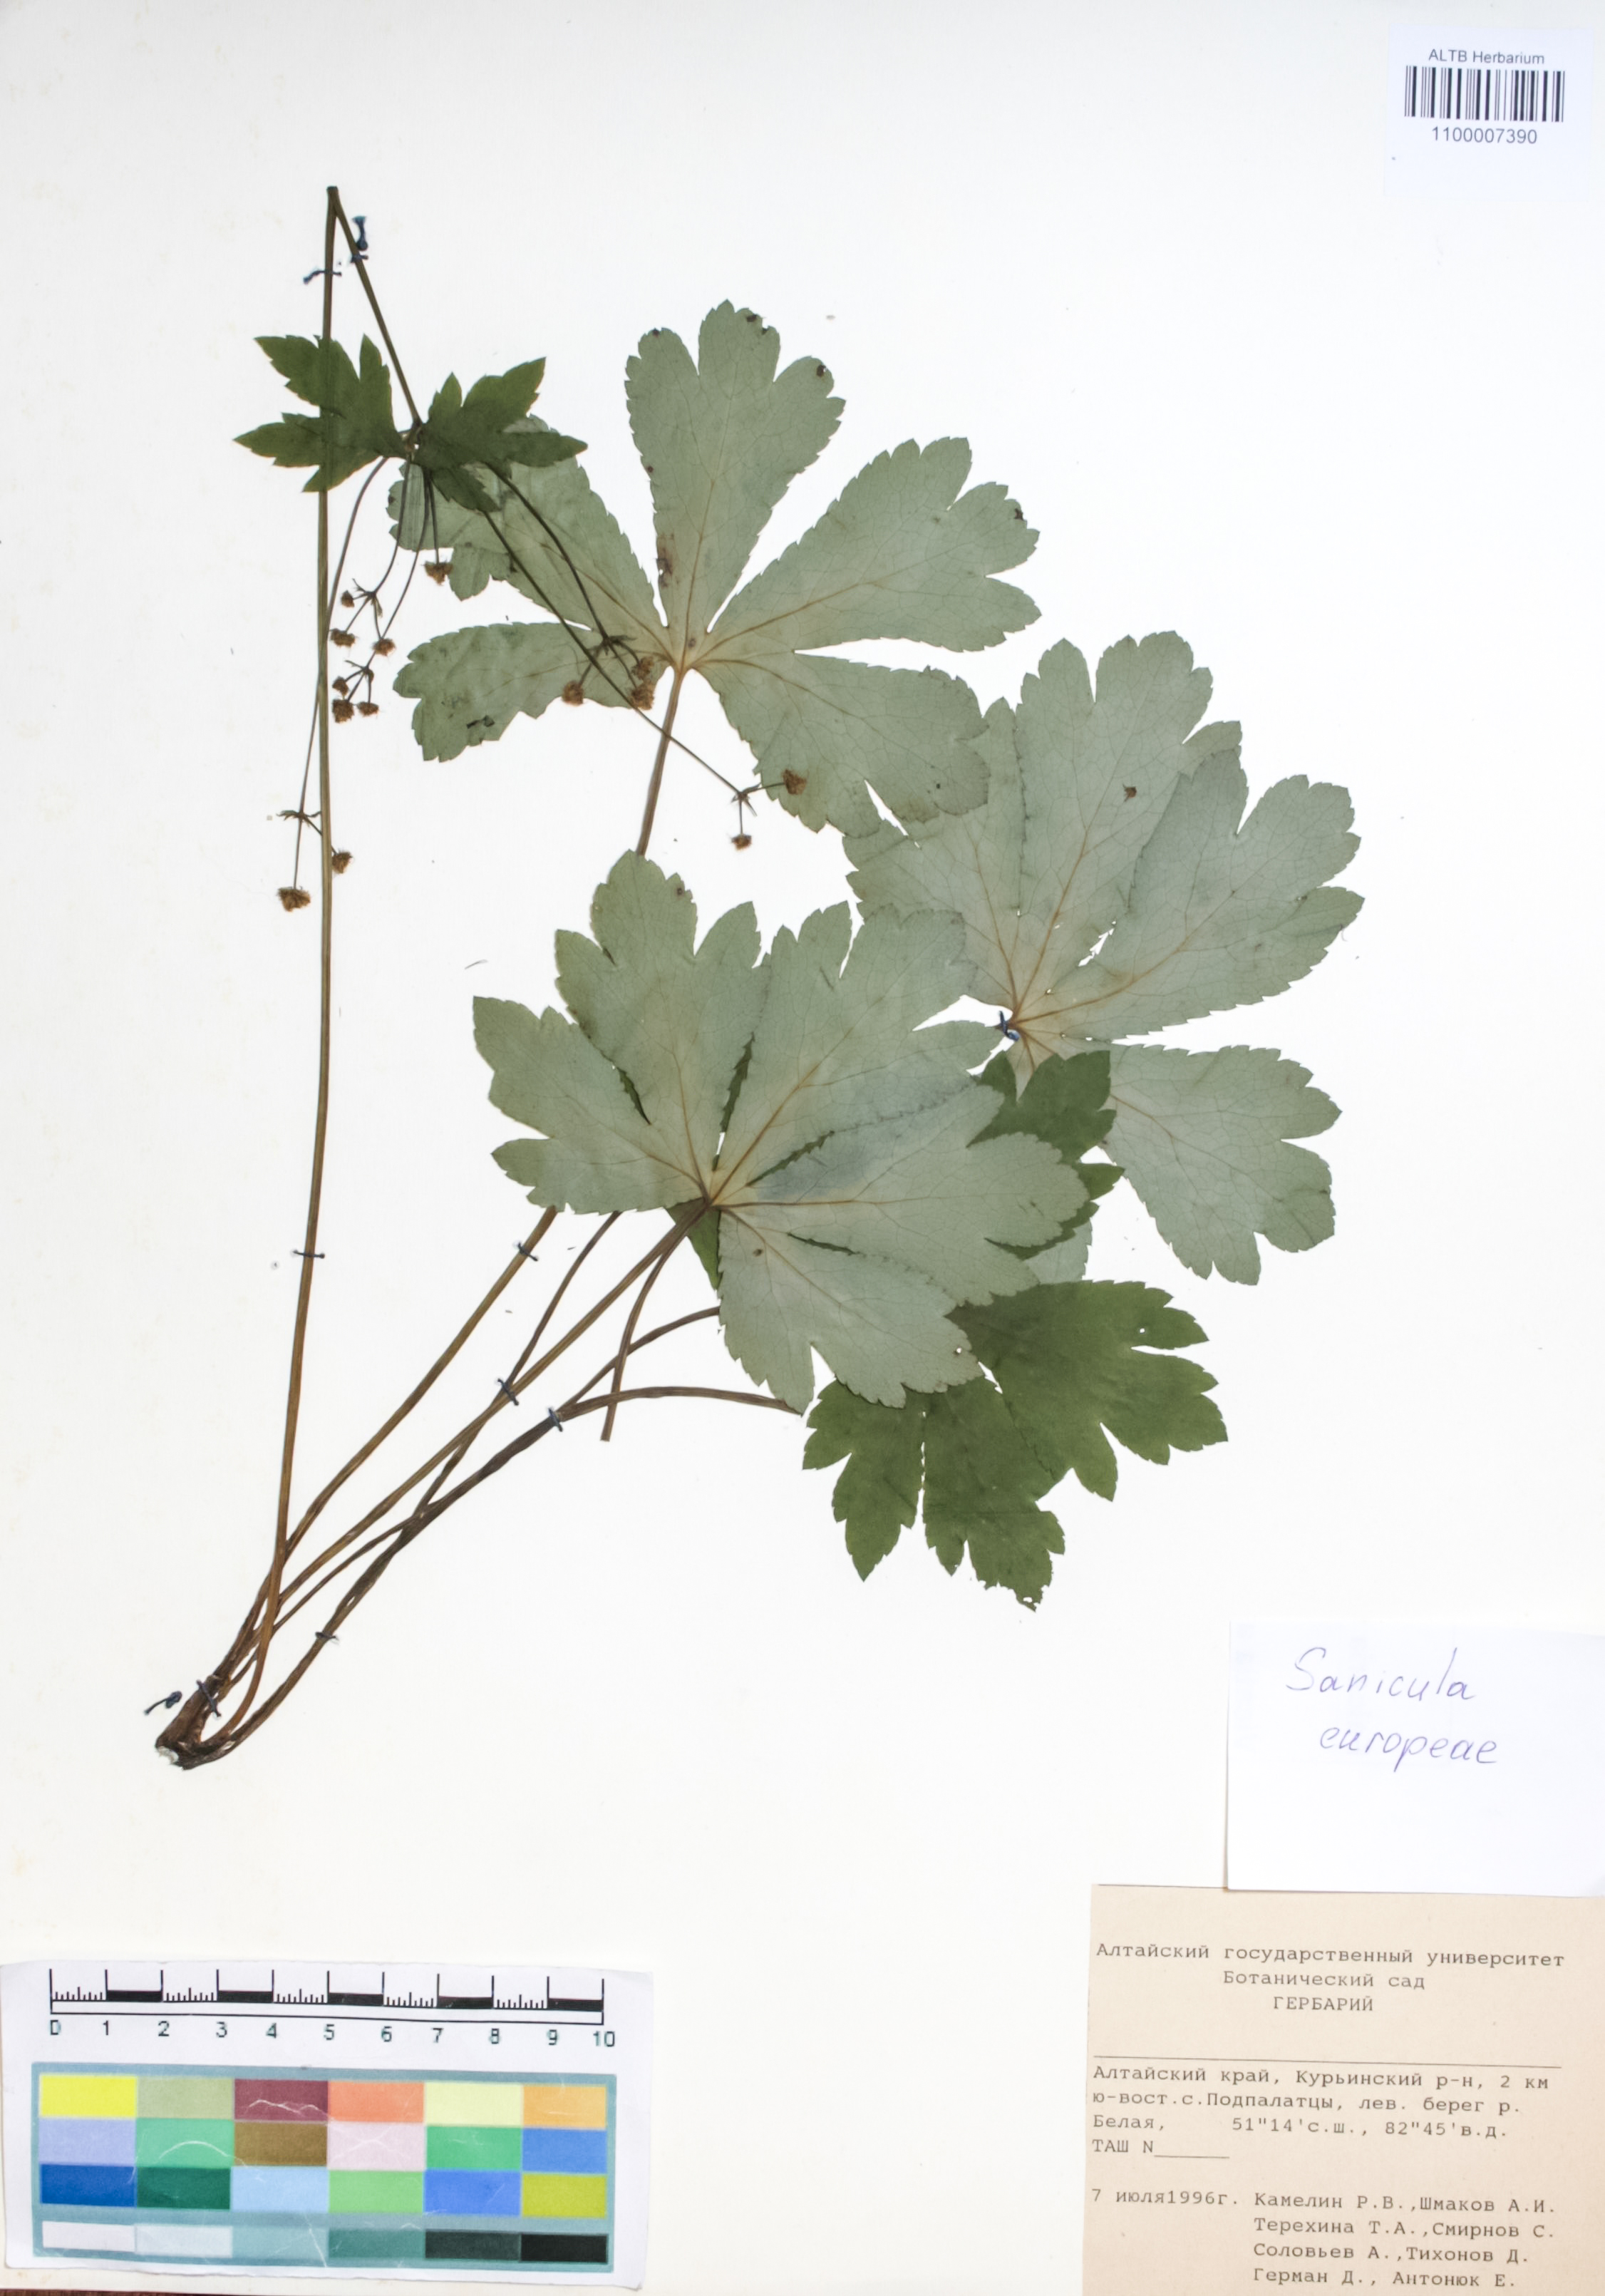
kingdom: Plantae
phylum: Tracheophyta
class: Magnoliopsida
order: Apiales
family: Apiaceae
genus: Sanicula
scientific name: Sanicula europaea
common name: Sanicle
